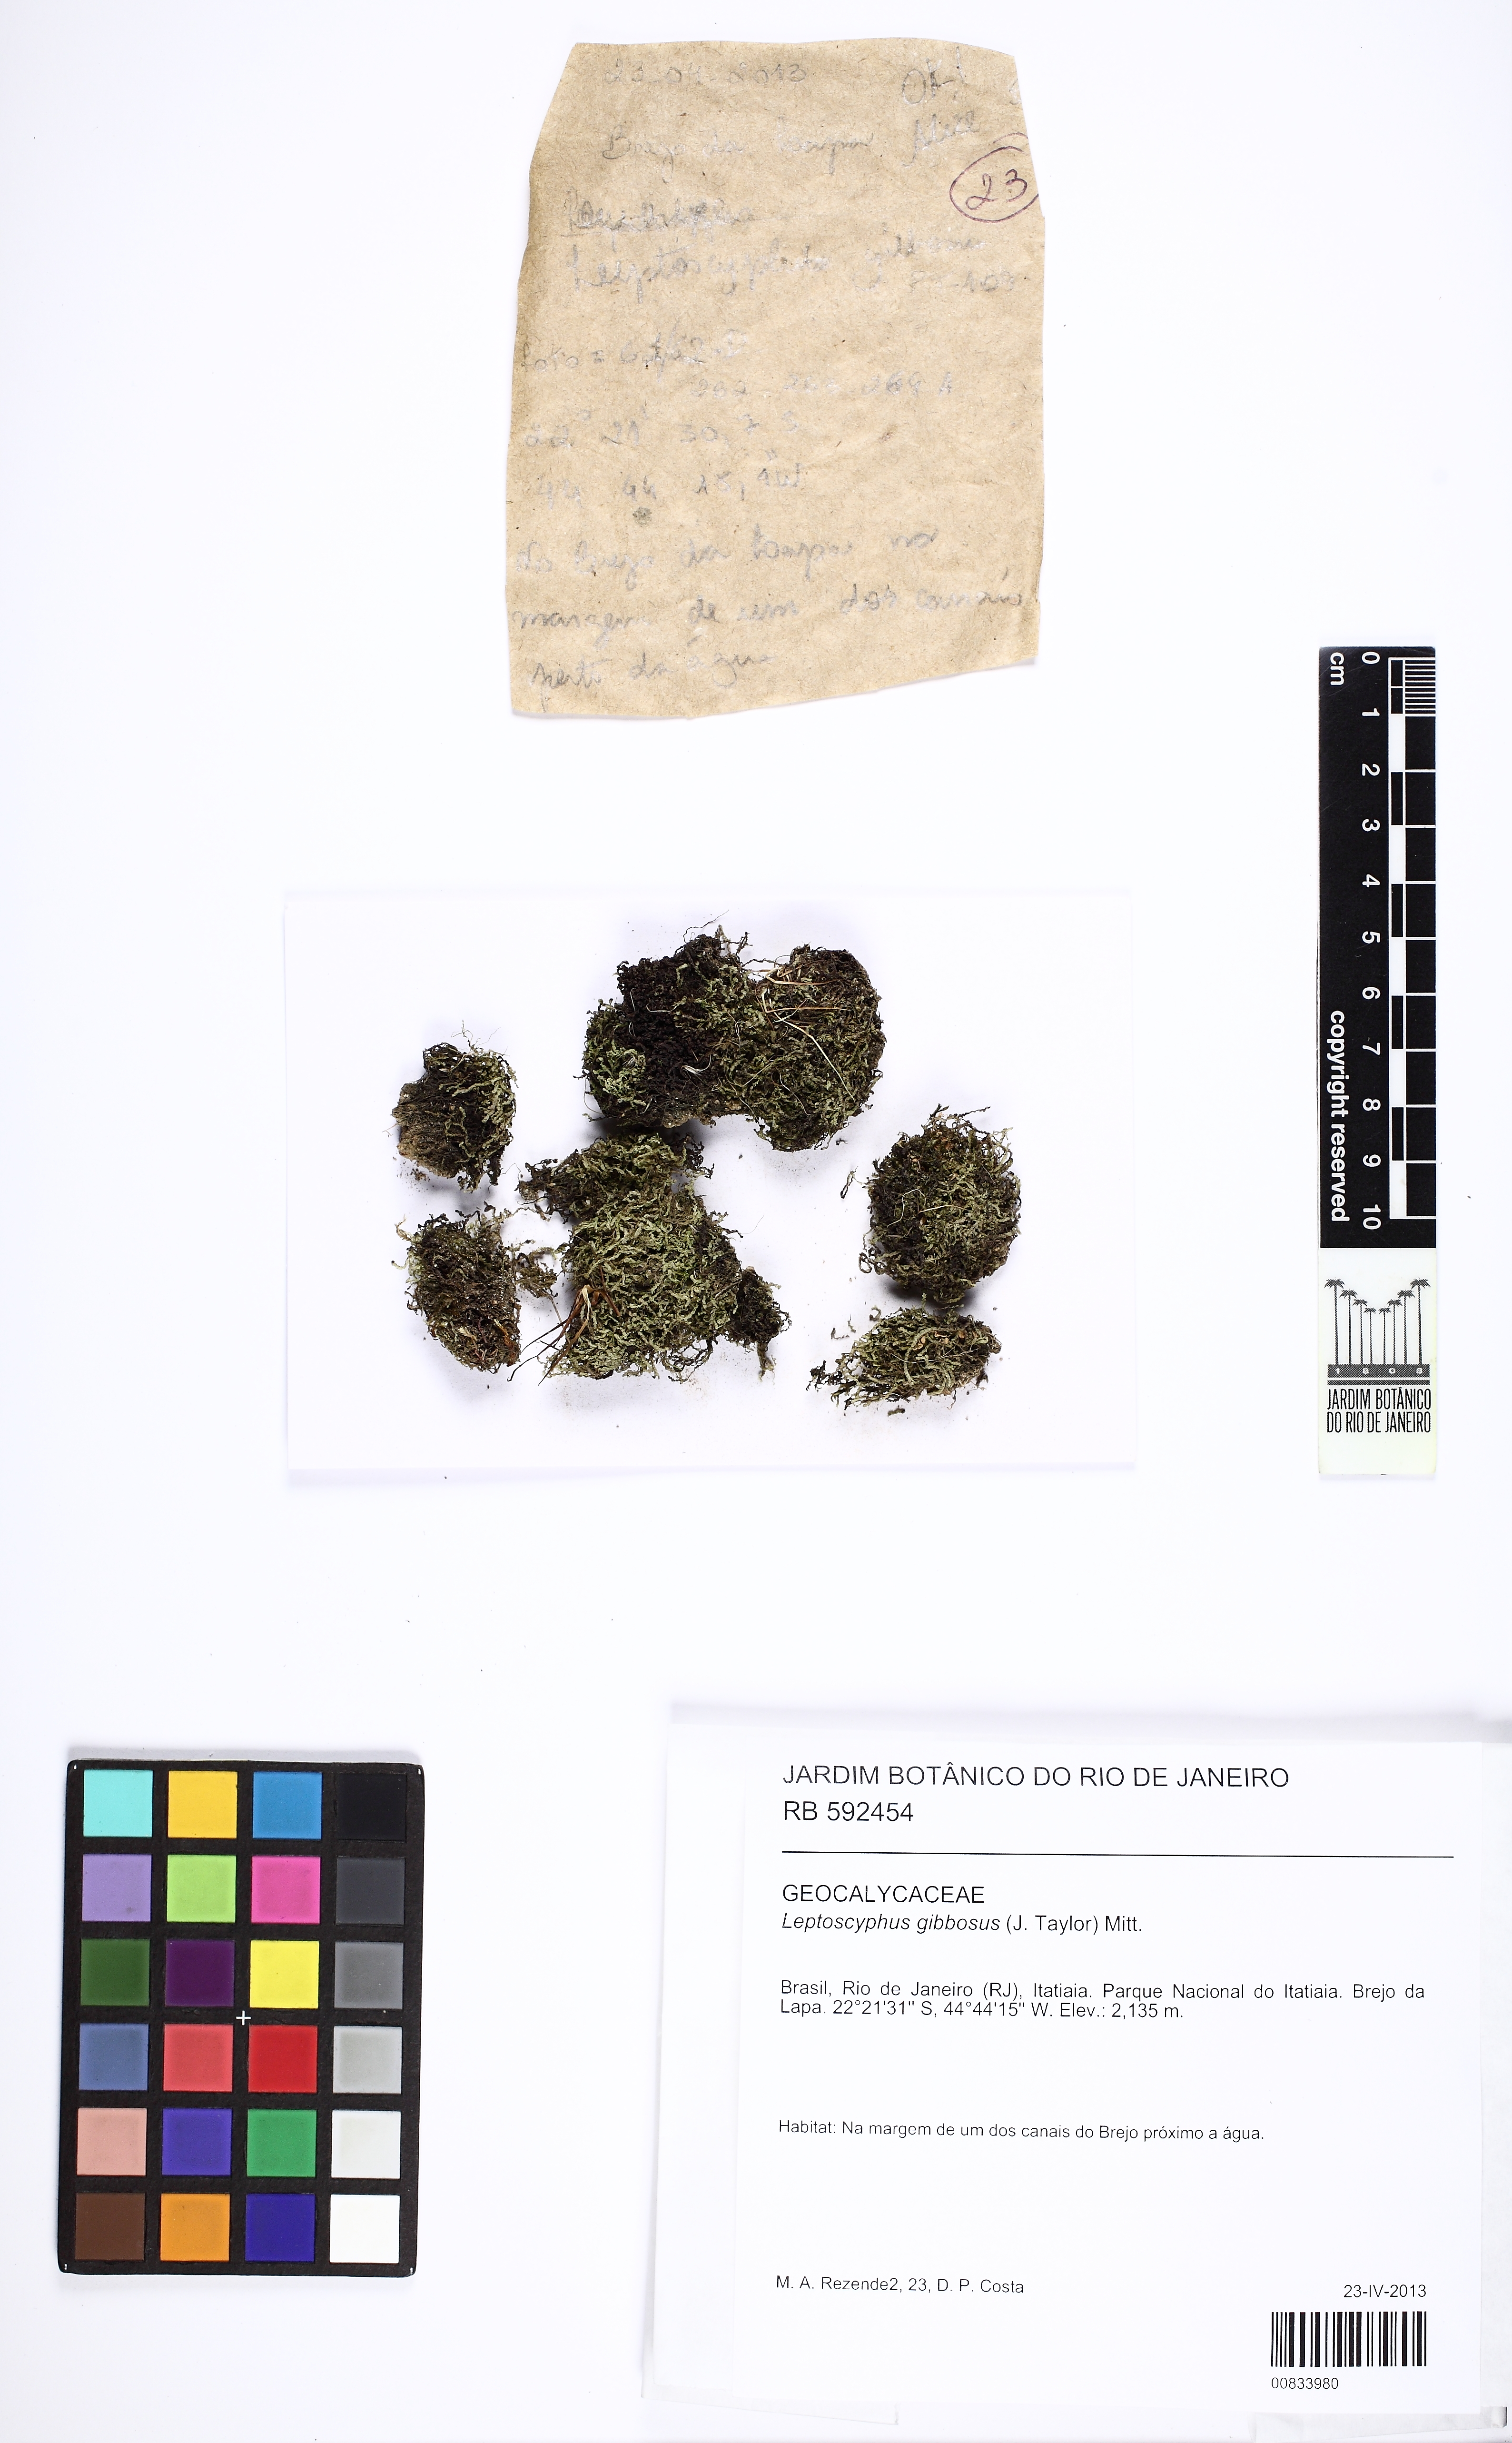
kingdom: Plantae
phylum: Marchantiophyta
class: Jungermanniopsida
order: Jungermanniales
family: Lophocoleaceae
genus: Leptoscyphus
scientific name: Leptoscyphus gibbosus
